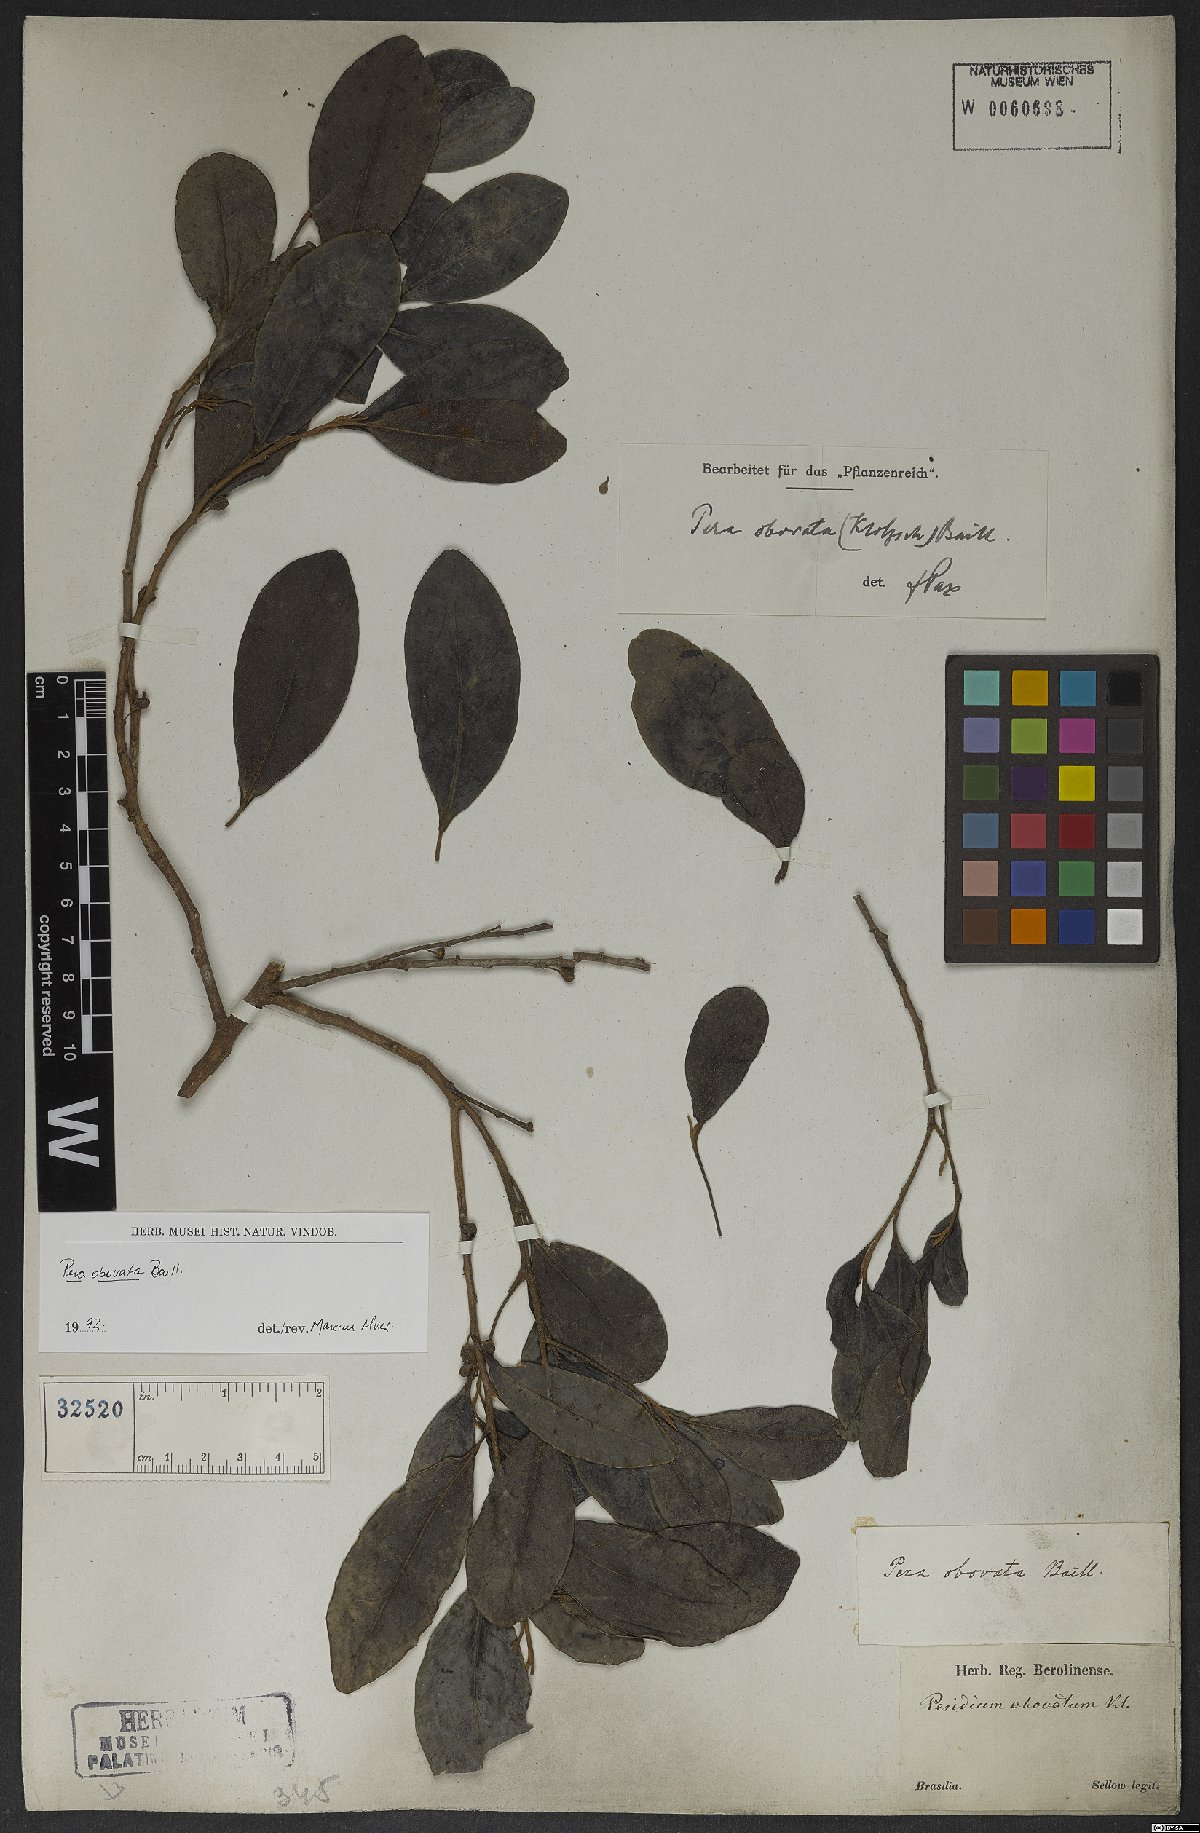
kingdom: Plantae
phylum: Tracheophyta
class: Magnoliopsida
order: Malpighiales
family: Peraceae
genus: Pera
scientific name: Pera glabrata
